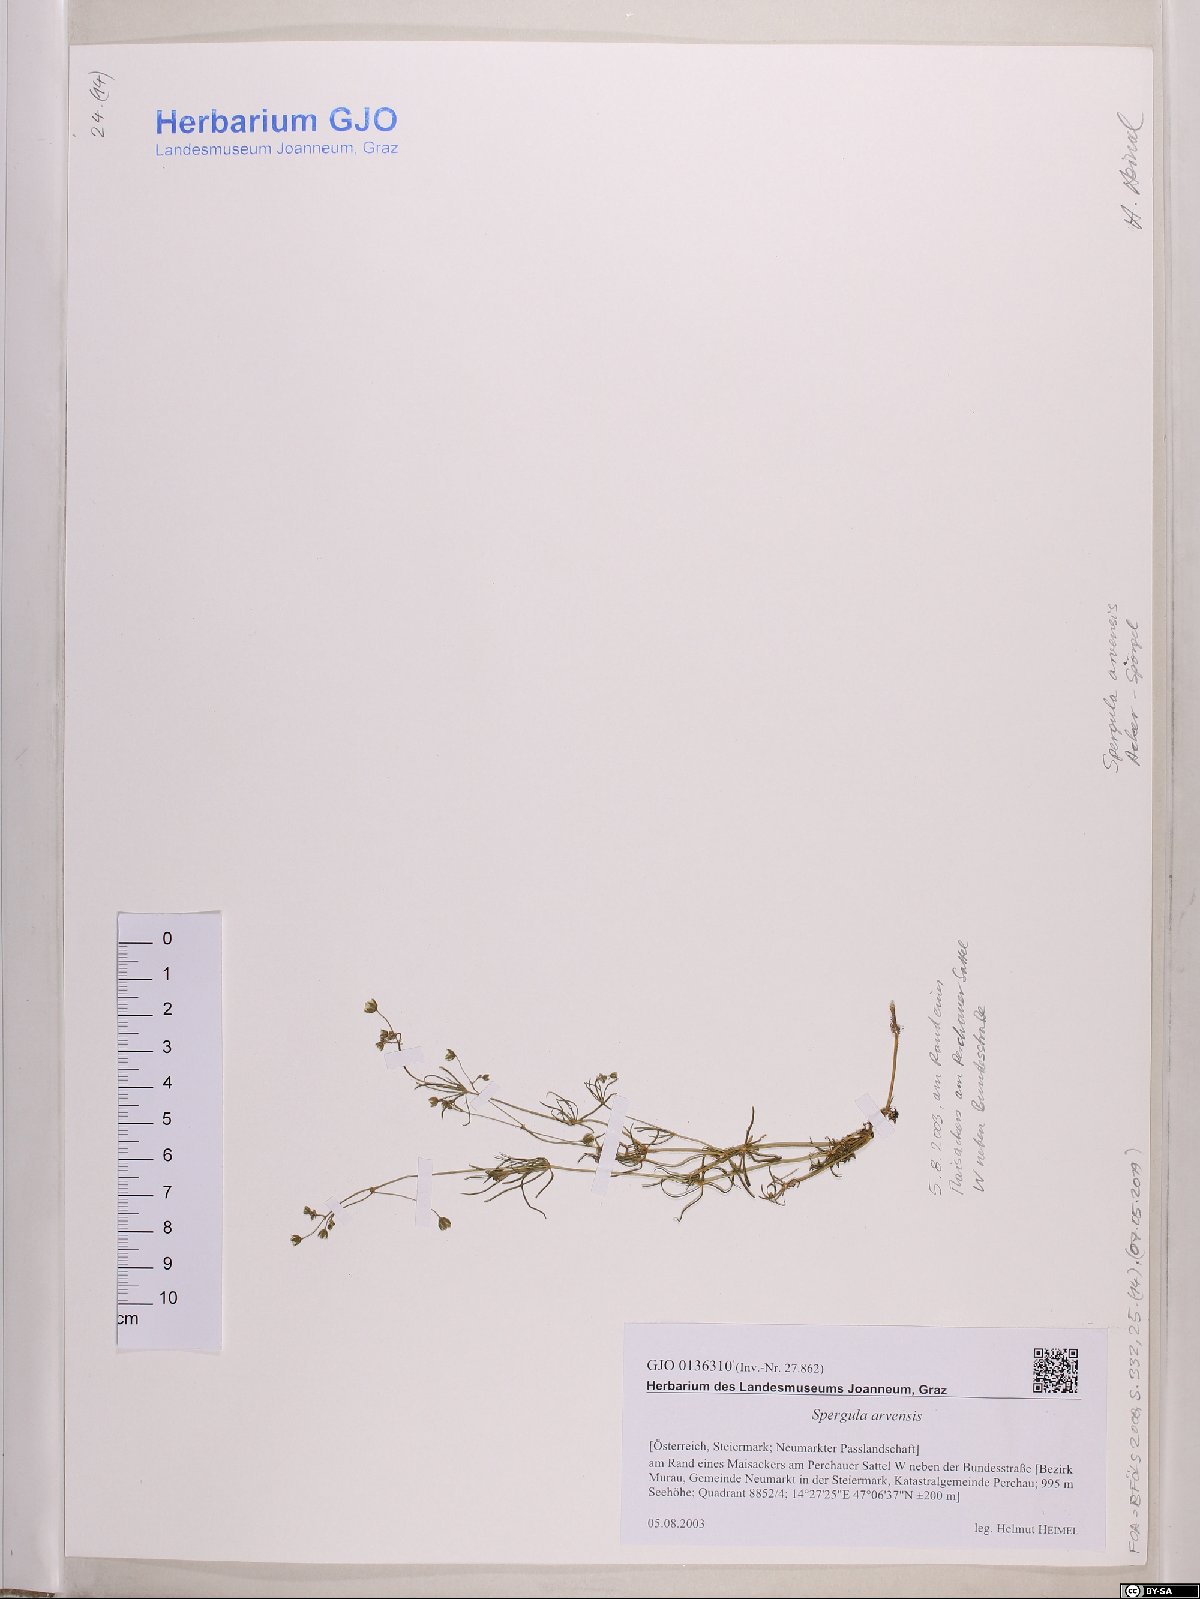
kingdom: Plantae
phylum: Tracheophyta
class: Magnoliopsida
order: Caryophyllales
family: Caryophyllaceae
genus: Spergula
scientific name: Spergula arvensis
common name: Corn spurrey
